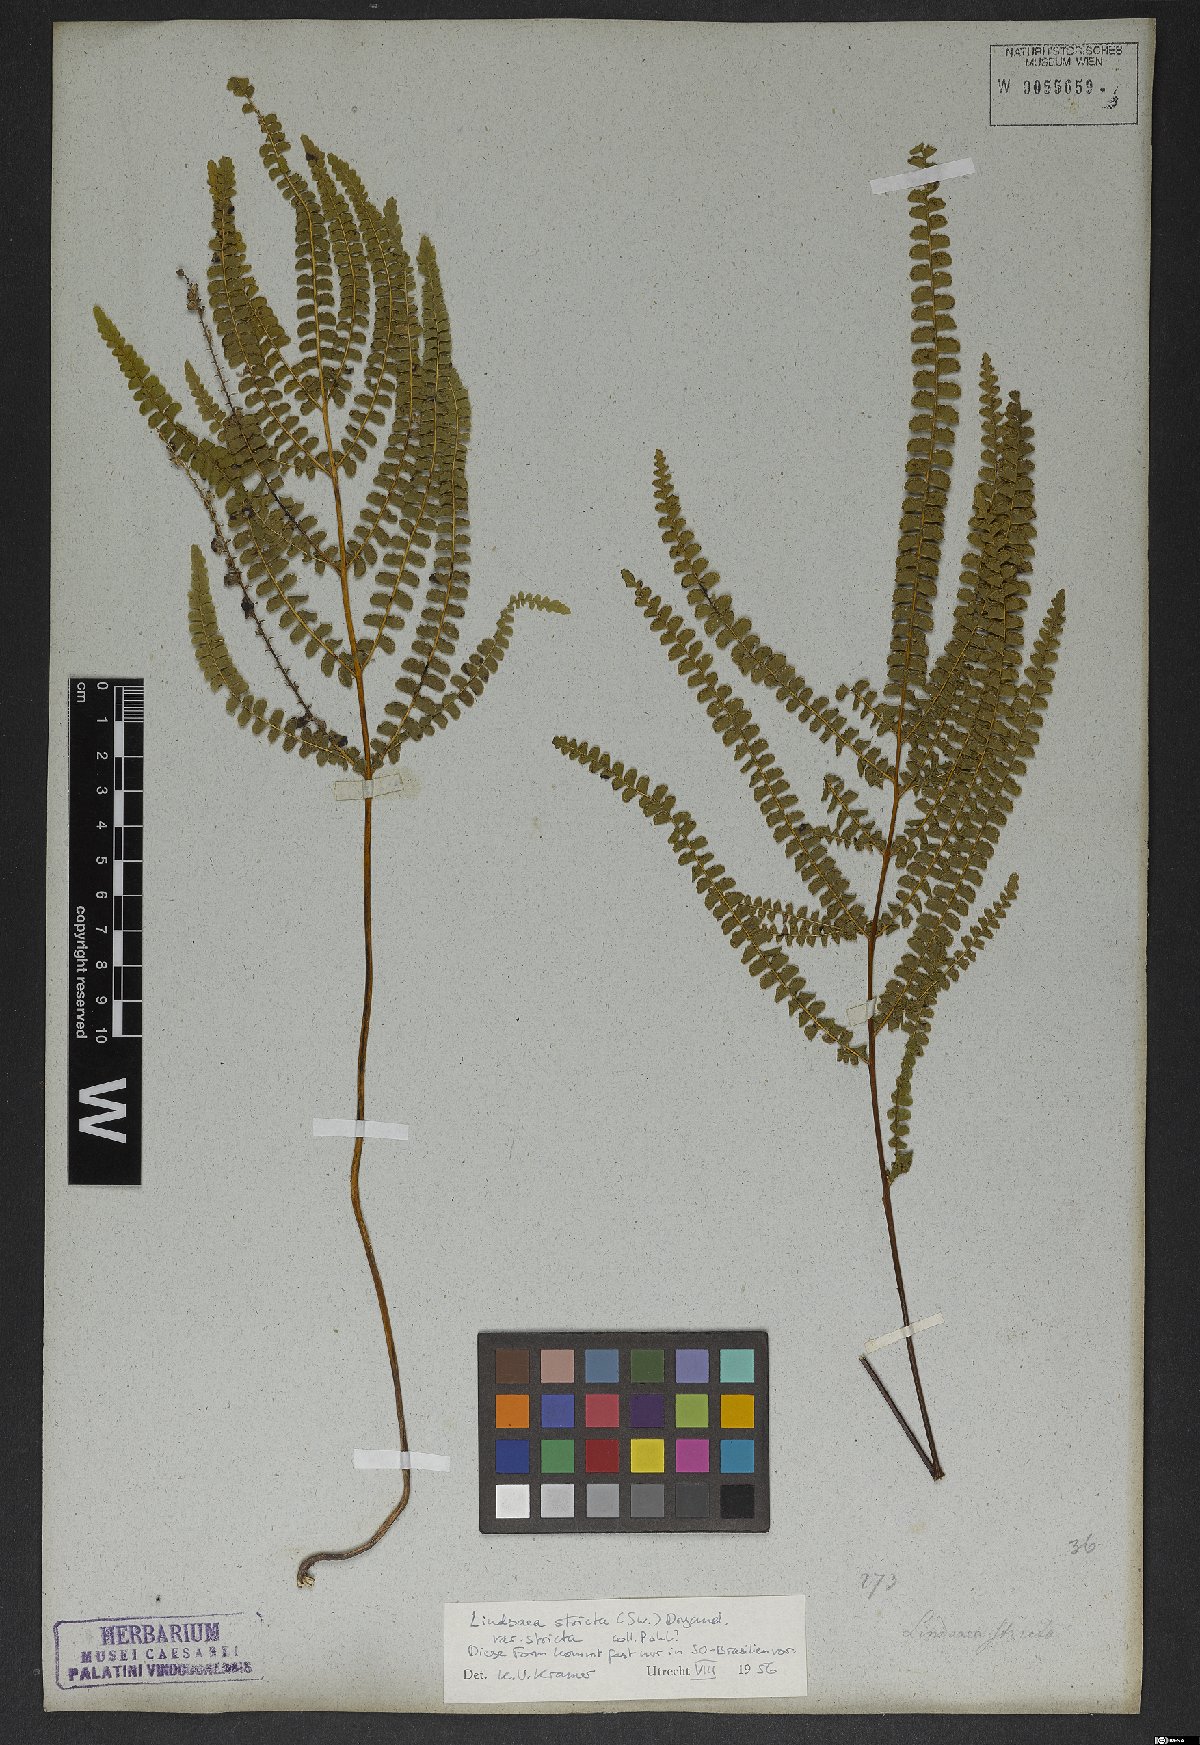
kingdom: Plantae
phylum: Tracheophyta
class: Polypodiopsida
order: Polypodiales
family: Lindsaeaceae
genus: Lindsaea
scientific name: Lindsaea stricta
